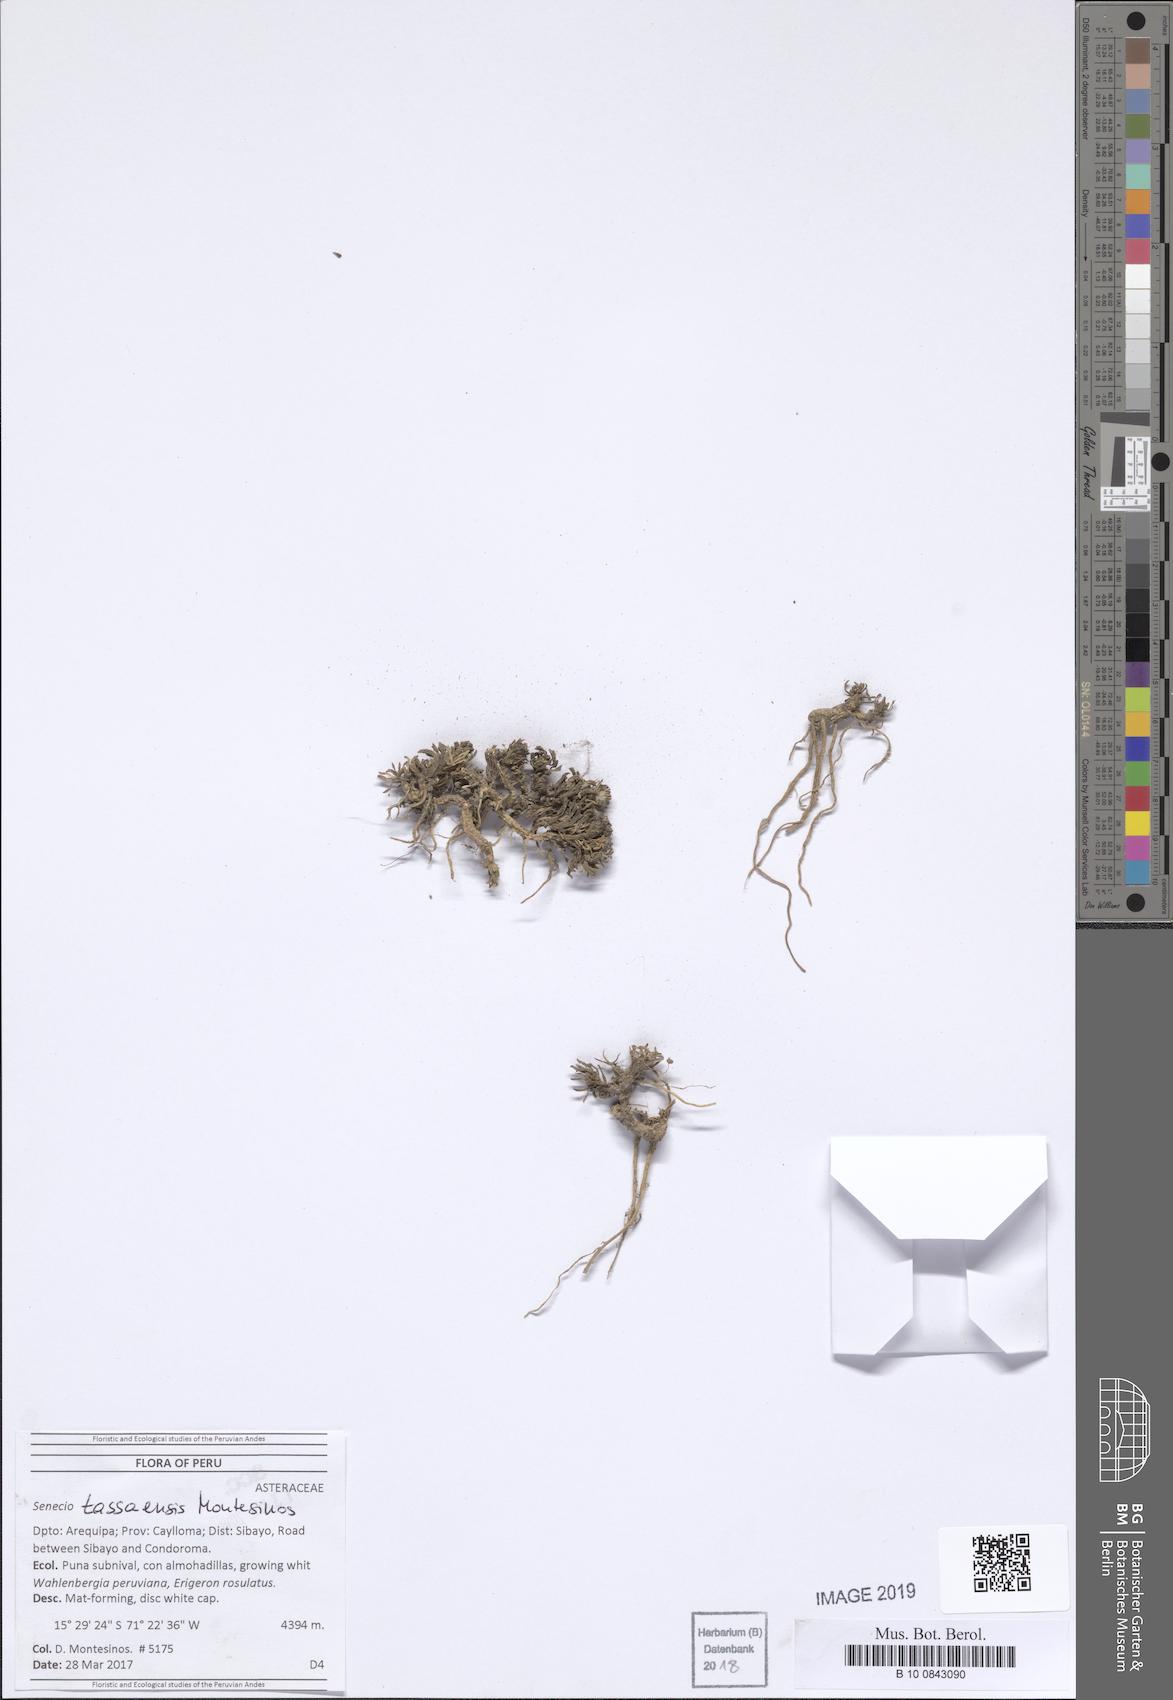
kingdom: Plantae
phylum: Tracheophyta
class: Magnoliopsida
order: Asterales
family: Asteraceae
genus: Senecio
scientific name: Senecio melanandrus
